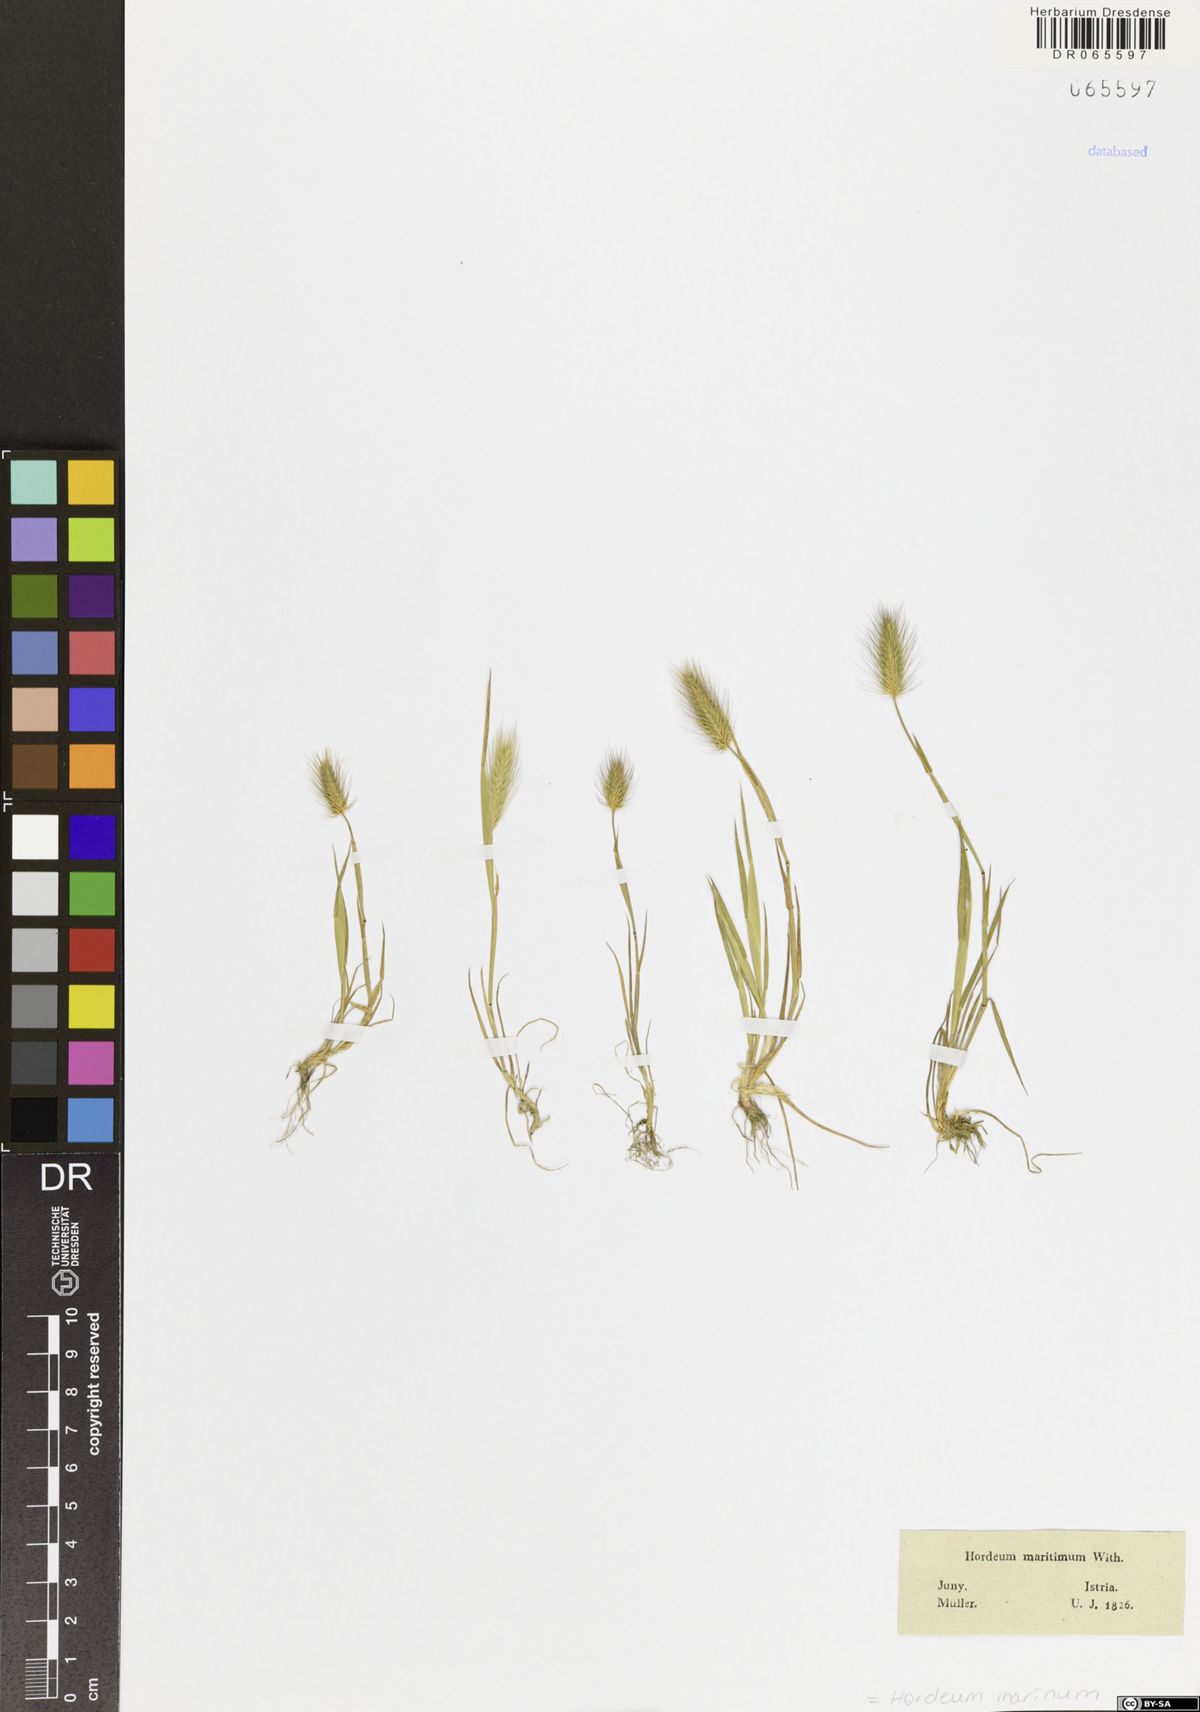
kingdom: Plantae
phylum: Tracheophyta
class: Liliopsida
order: Poales
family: Poaceae
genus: Hordeum
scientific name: Hordeum marinum
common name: Sea barley
